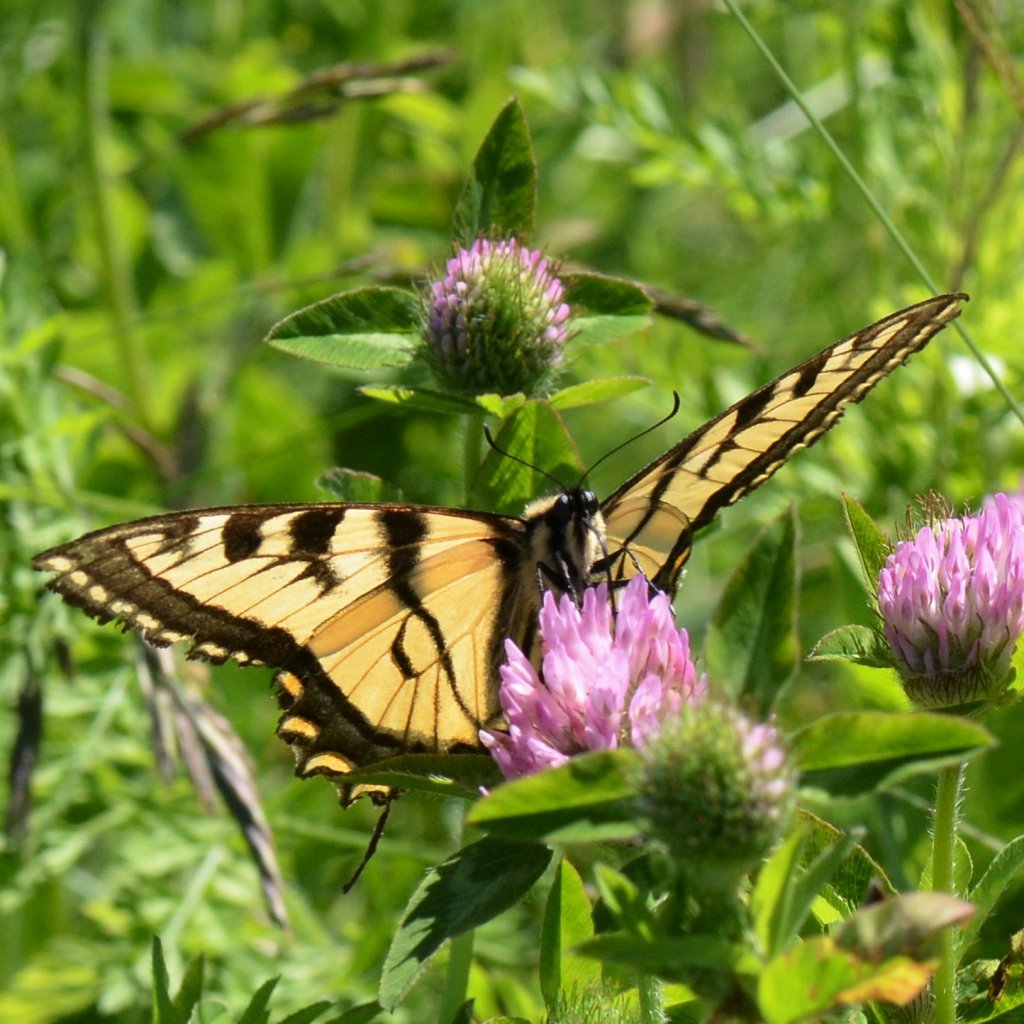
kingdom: Animalia
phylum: Arthropoda
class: Insecta
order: Lepidoptera
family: Papilionidae
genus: Pterourus
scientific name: Pterourus canadensis
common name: Canadian Tiger Swallowtail
